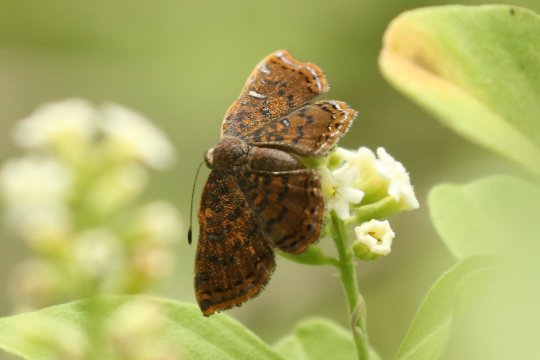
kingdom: Animalia
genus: Caria
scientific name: Caria ino
